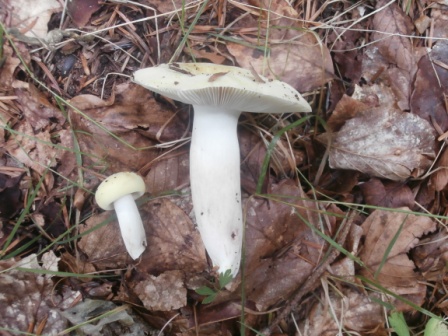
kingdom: Fungi
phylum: Basidiomycota
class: Agaricomycetes
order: Russulales
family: Russulaceae
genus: Russula
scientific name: Russula violeipes
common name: ferskengul skørhat
